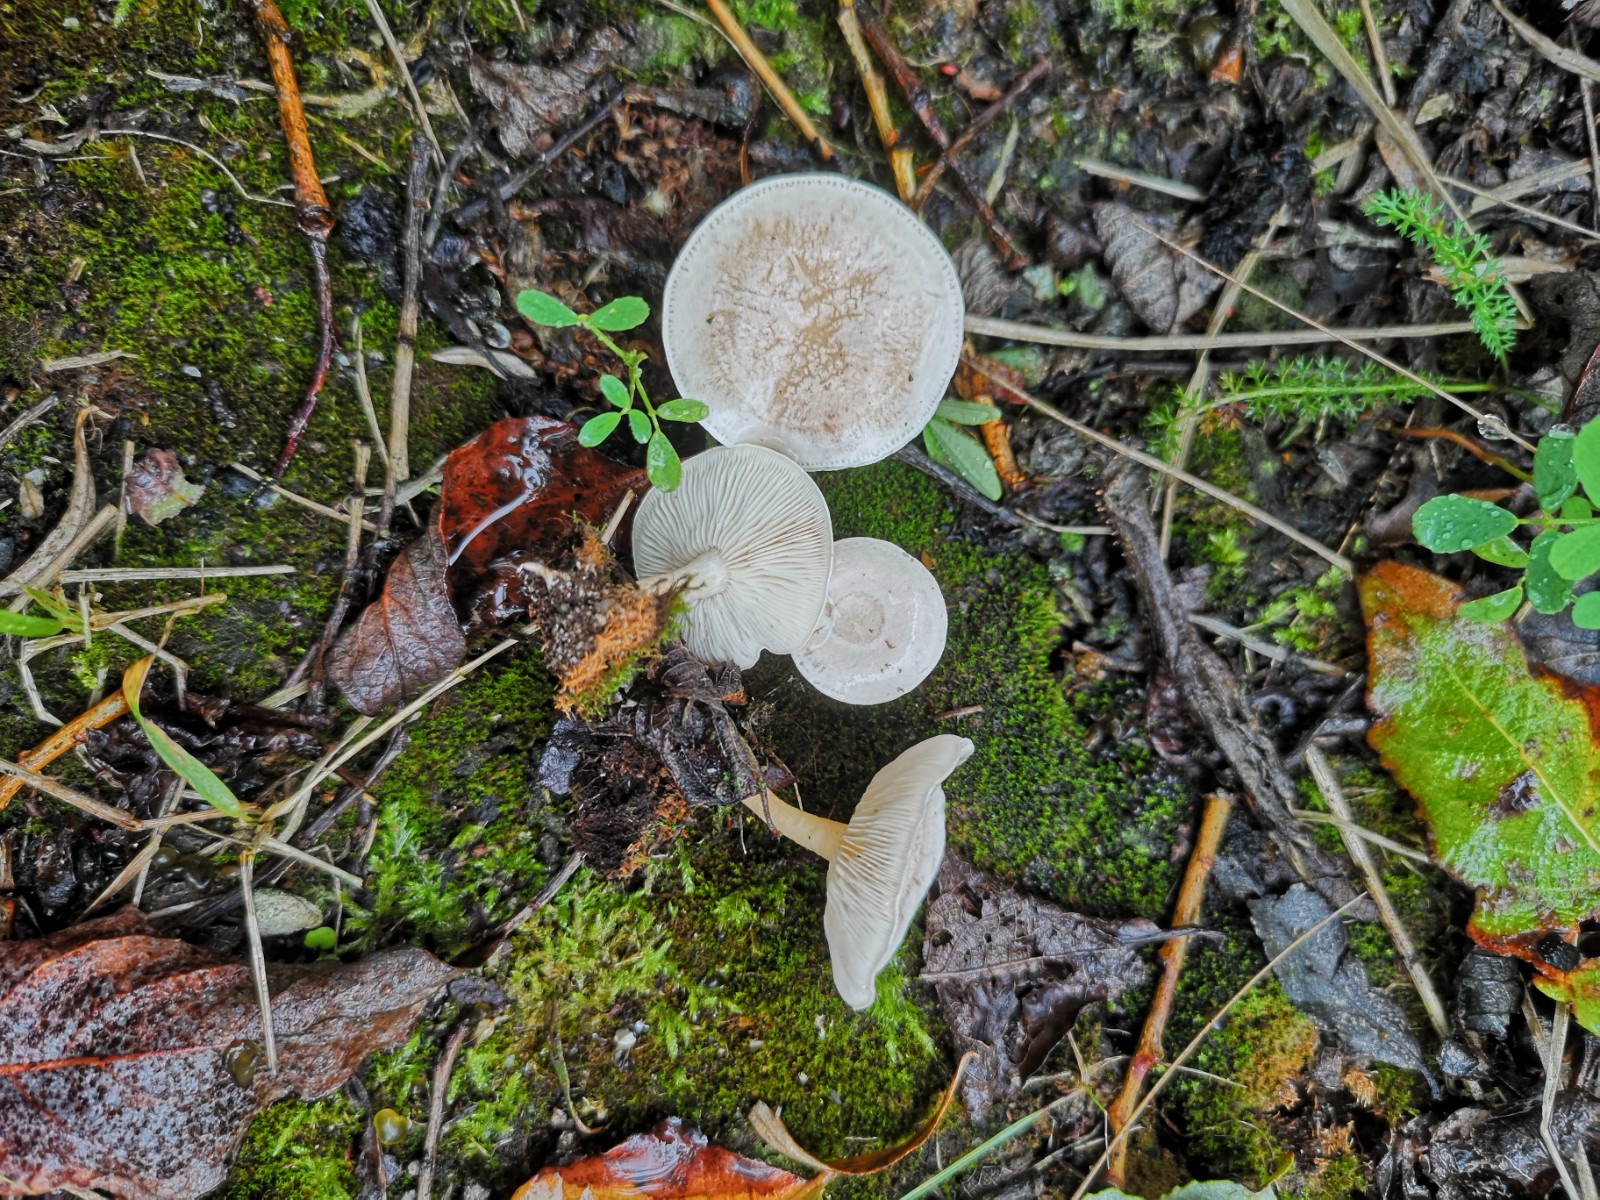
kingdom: Fungi
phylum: Basidiomycota
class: Agaricomycetes
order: Agaricales
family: Tricholomataceae
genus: Clitocybe
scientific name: Clitocybe
